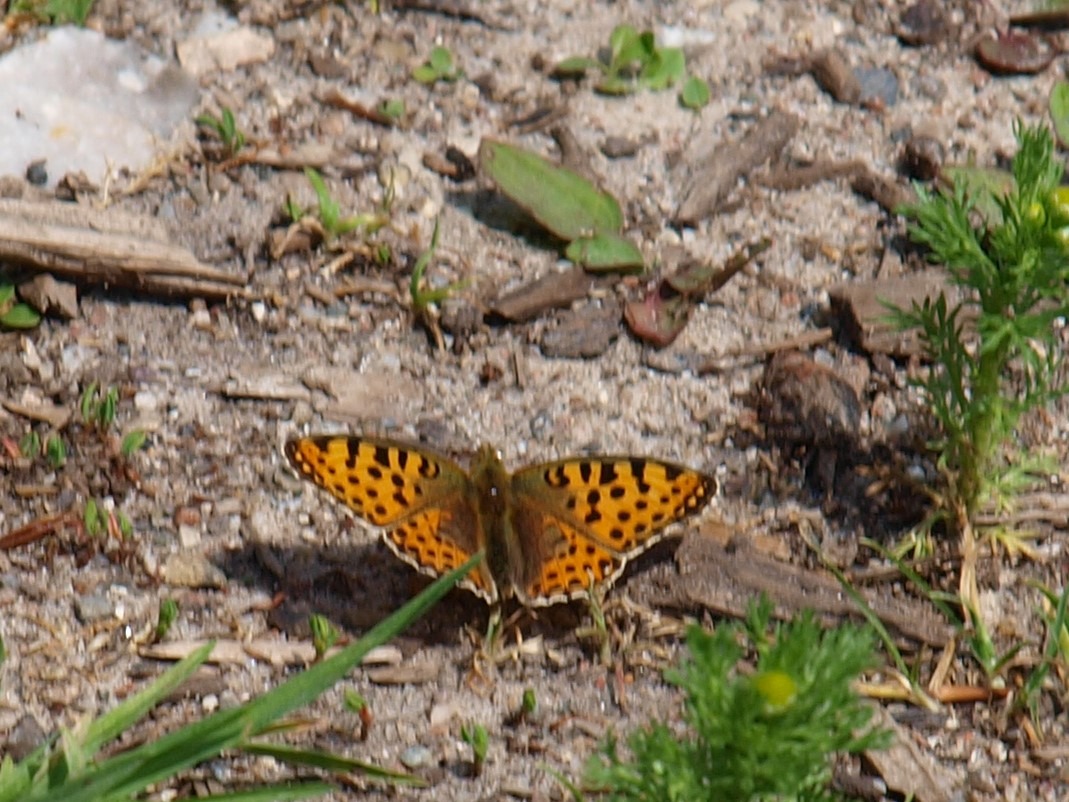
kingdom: Animalia
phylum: Arthropoda
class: Insecta
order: Lepidoptera
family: Nymphalidae
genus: Issoria
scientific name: Issoria lathonia
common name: Storplettet perlemorsommerfugl
